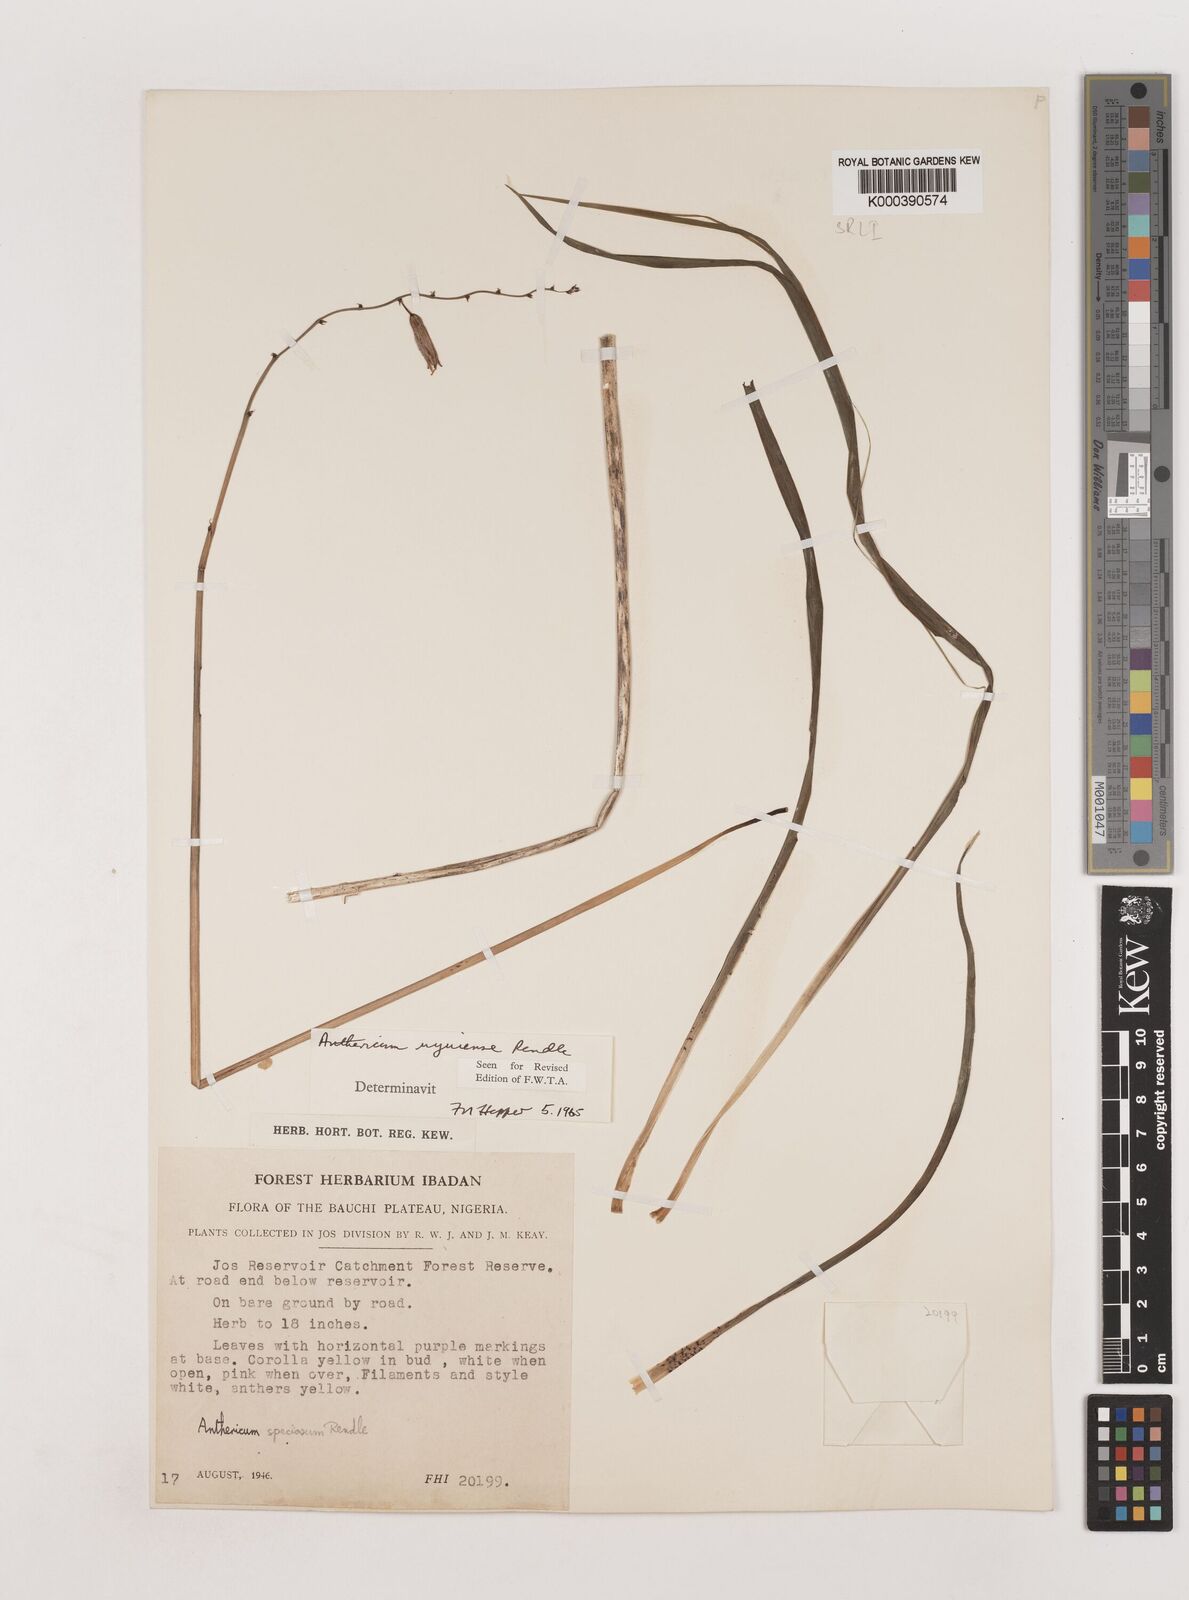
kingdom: Plantae
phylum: Tracheophyta
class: Liliopsida
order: Asparagales
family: Asparagaceae
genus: Chlorophytum
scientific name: Chlorophytum cameronii
